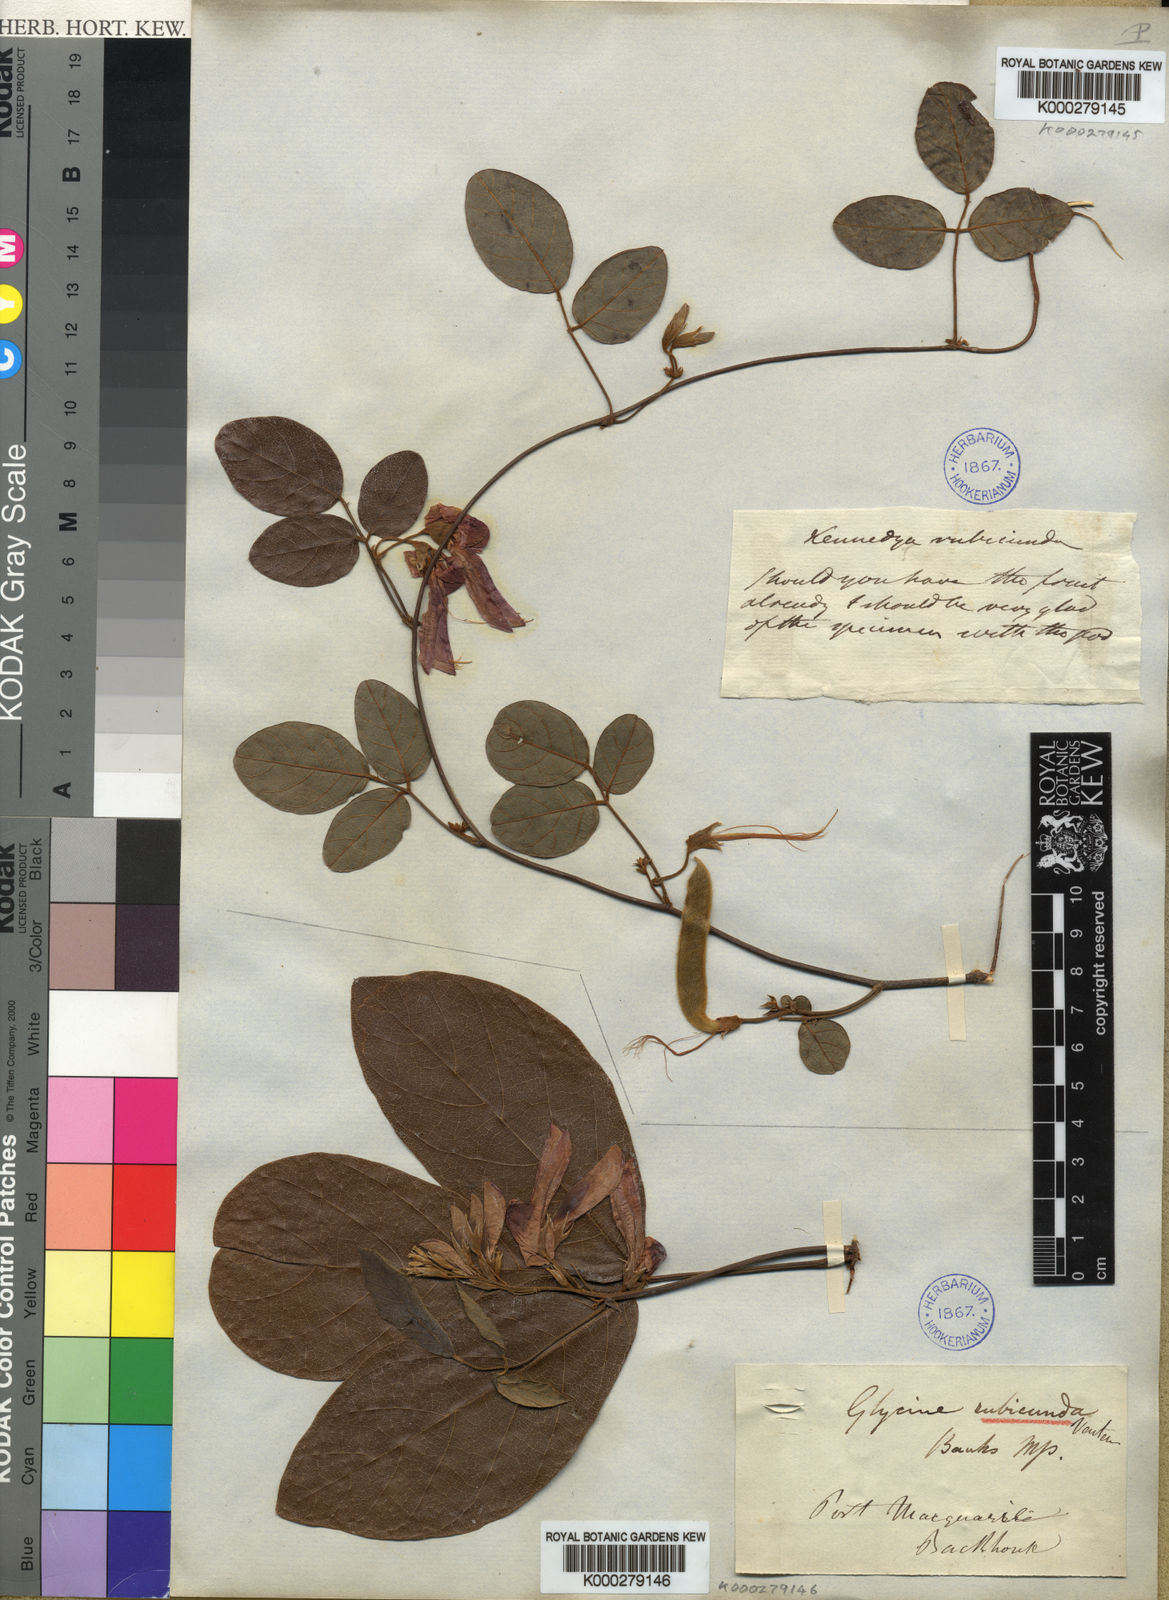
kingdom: Plantae
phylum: Tracheophyta
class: Magnoliopsida
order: Fabales
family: Fabaceae
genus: Kennedia
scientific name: Kennedia rubicunda
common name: Red kennedy-pea
